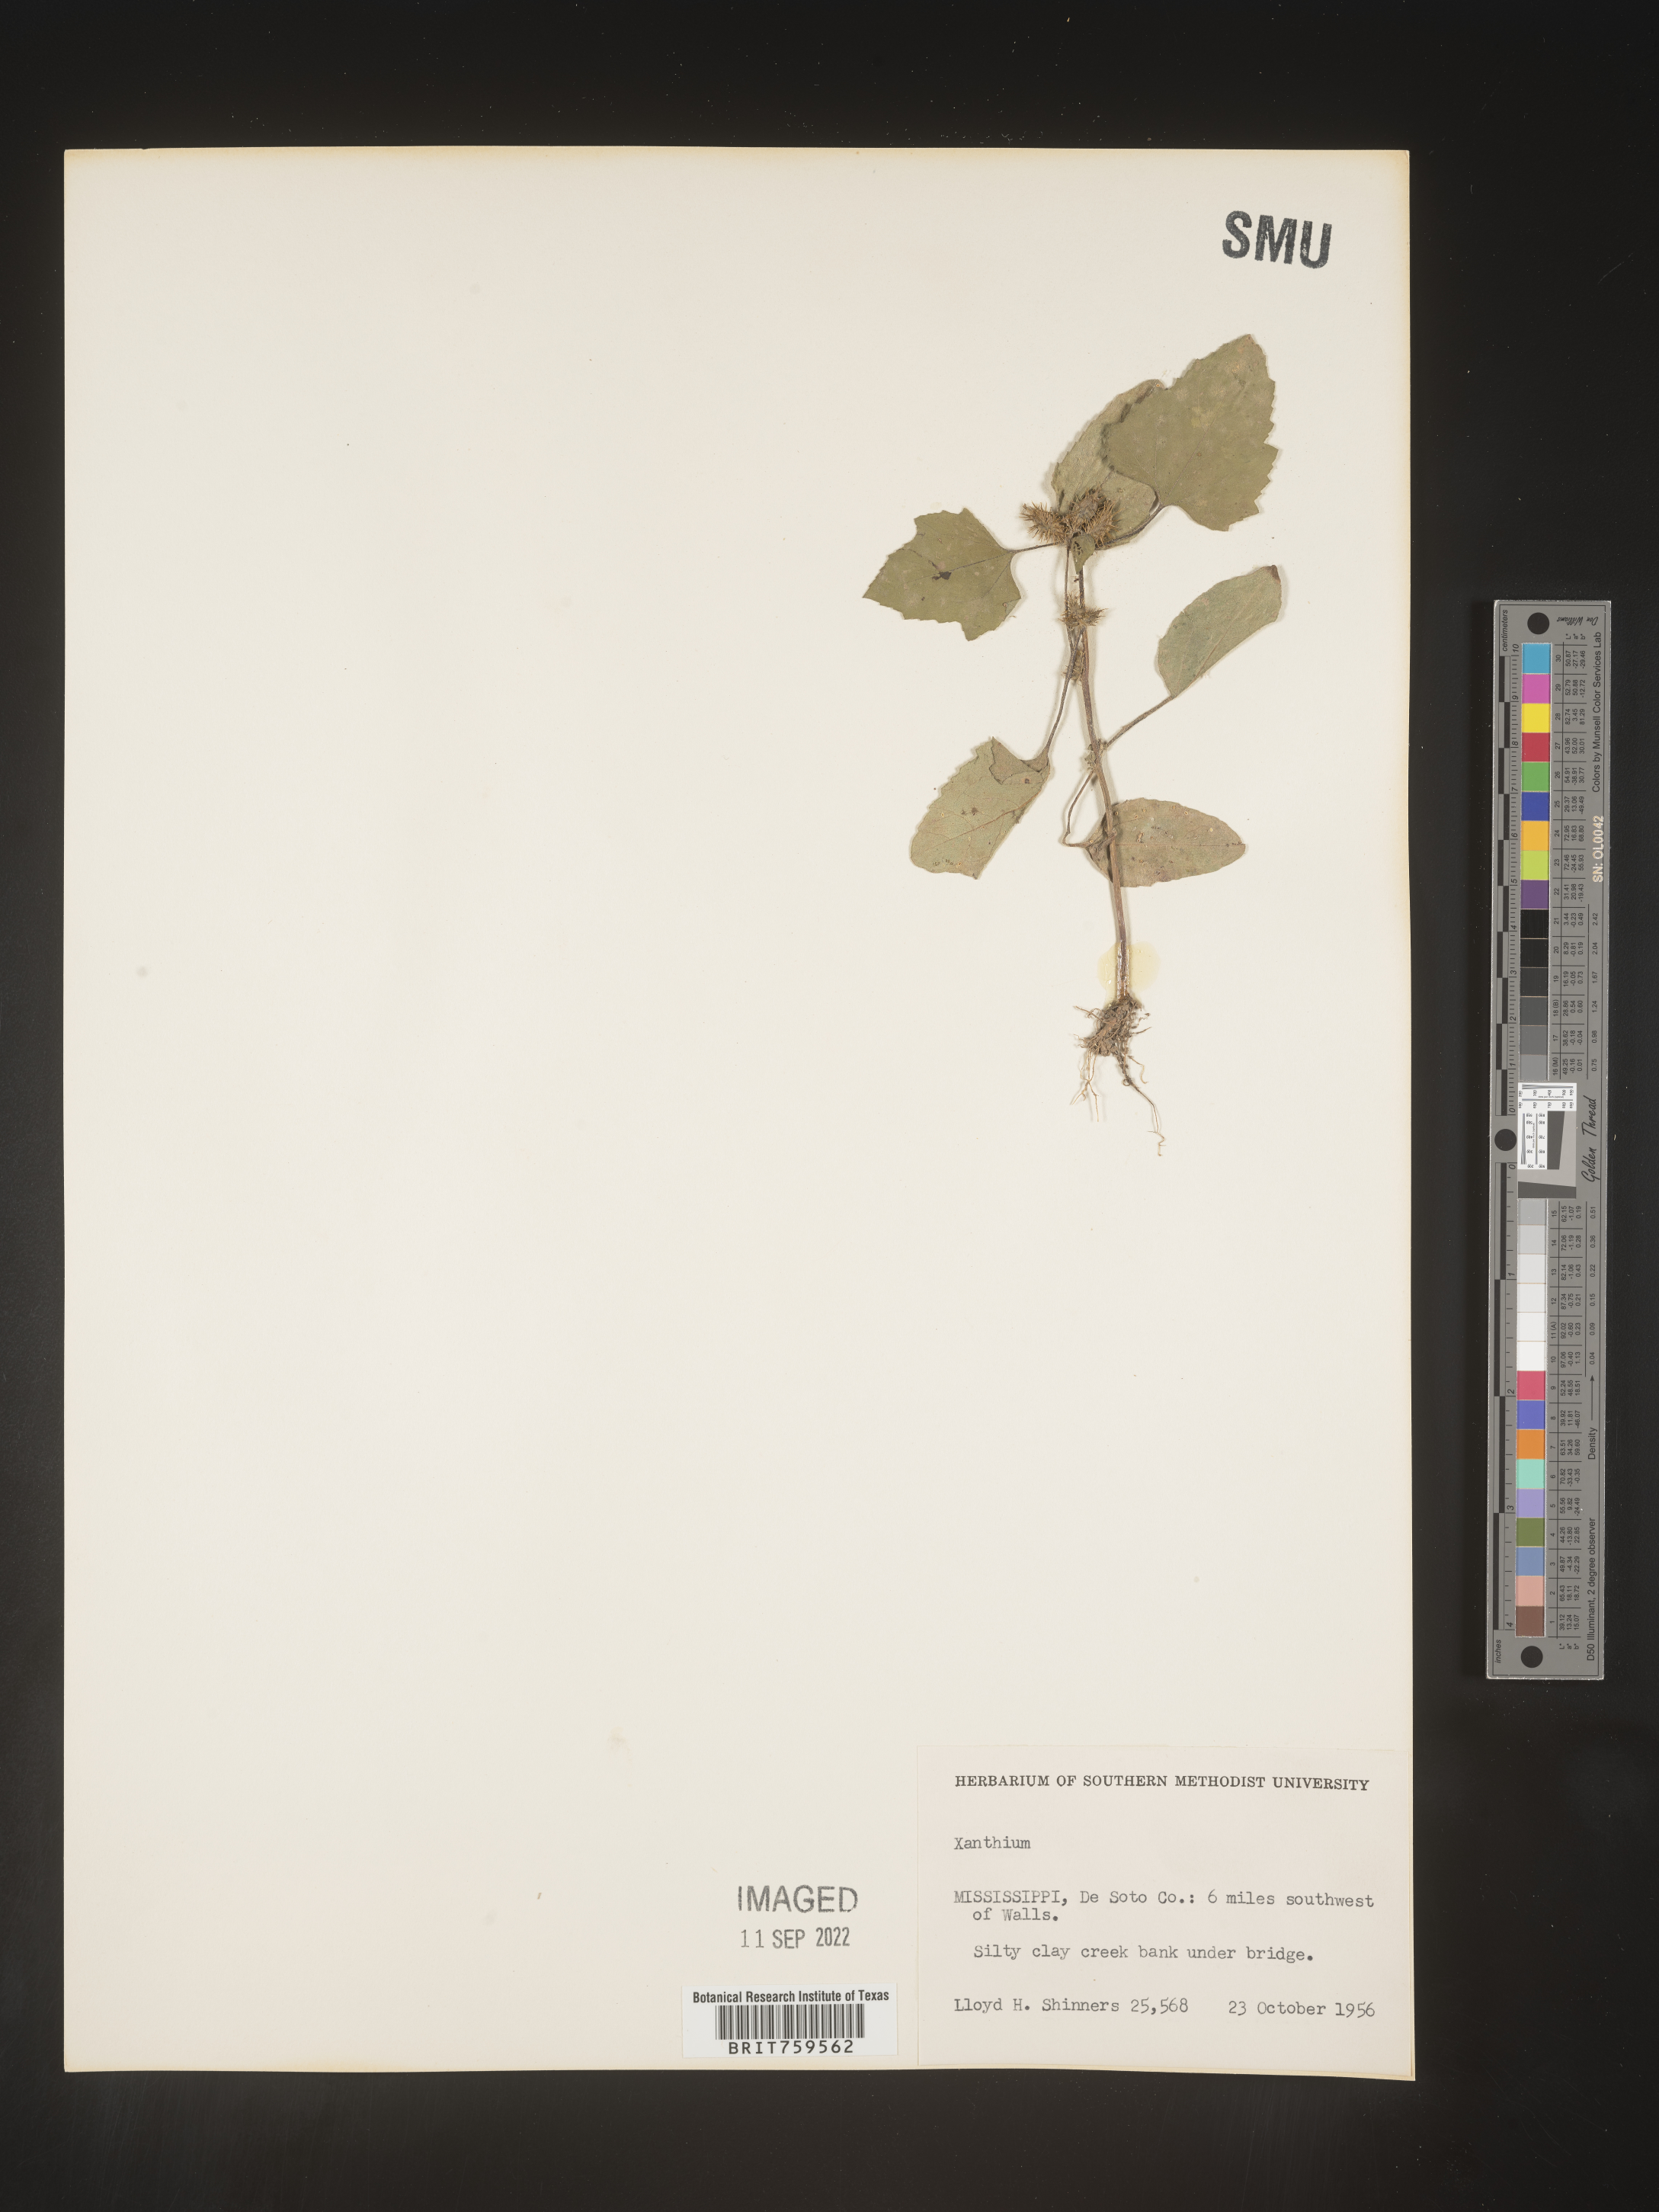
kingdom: Plantae
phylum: Tracheophyta
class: Magnoliopsida
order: Asterales
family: Asteraceae
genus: Xanthium
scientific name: Xanthium
